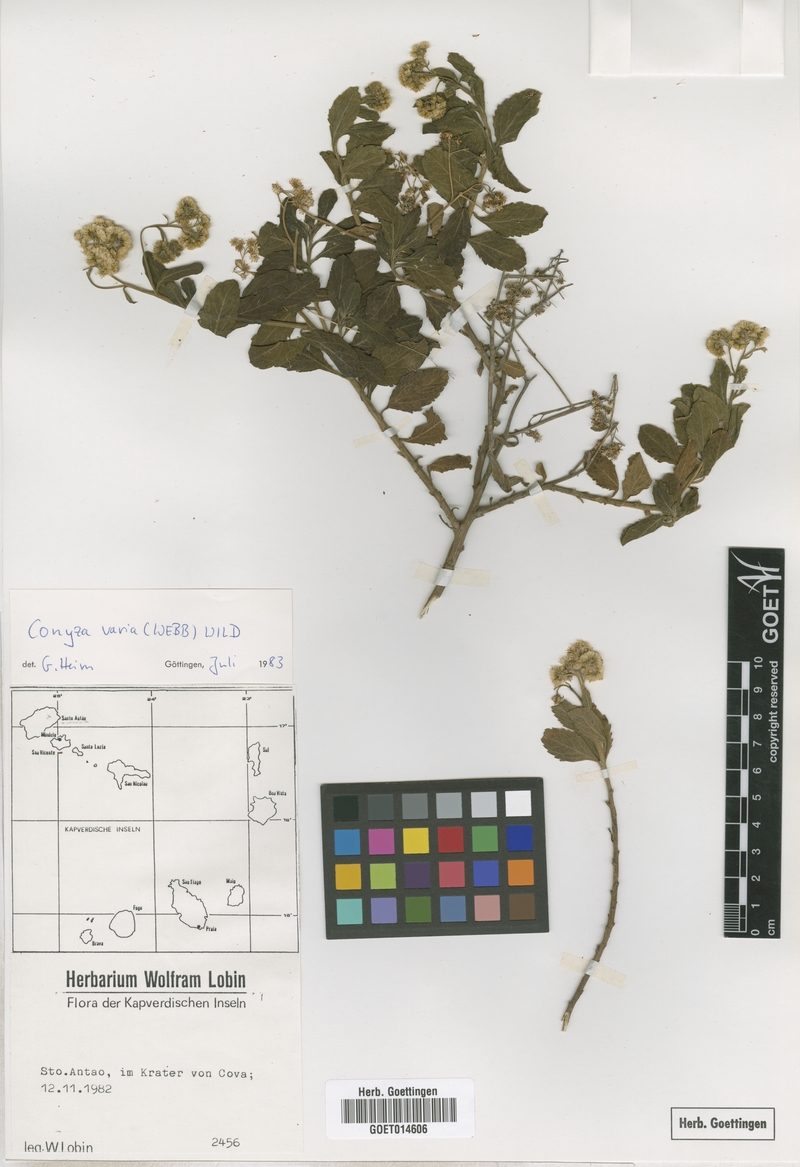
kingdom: Plantae
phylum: Tracheophyta
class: Magnoliopsida
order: Asterales
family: Asteraceae
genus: Nidorella
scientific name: Nidorella varia
